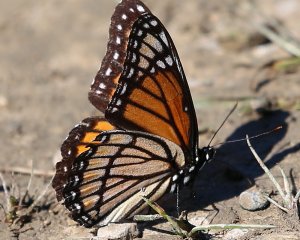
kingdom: Animalia
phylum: Arthropoda
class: Insecta
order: Lepidoptera
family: Nymphalidae
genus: Limenitis
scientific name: Limenitis archippus
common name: Viceroy
